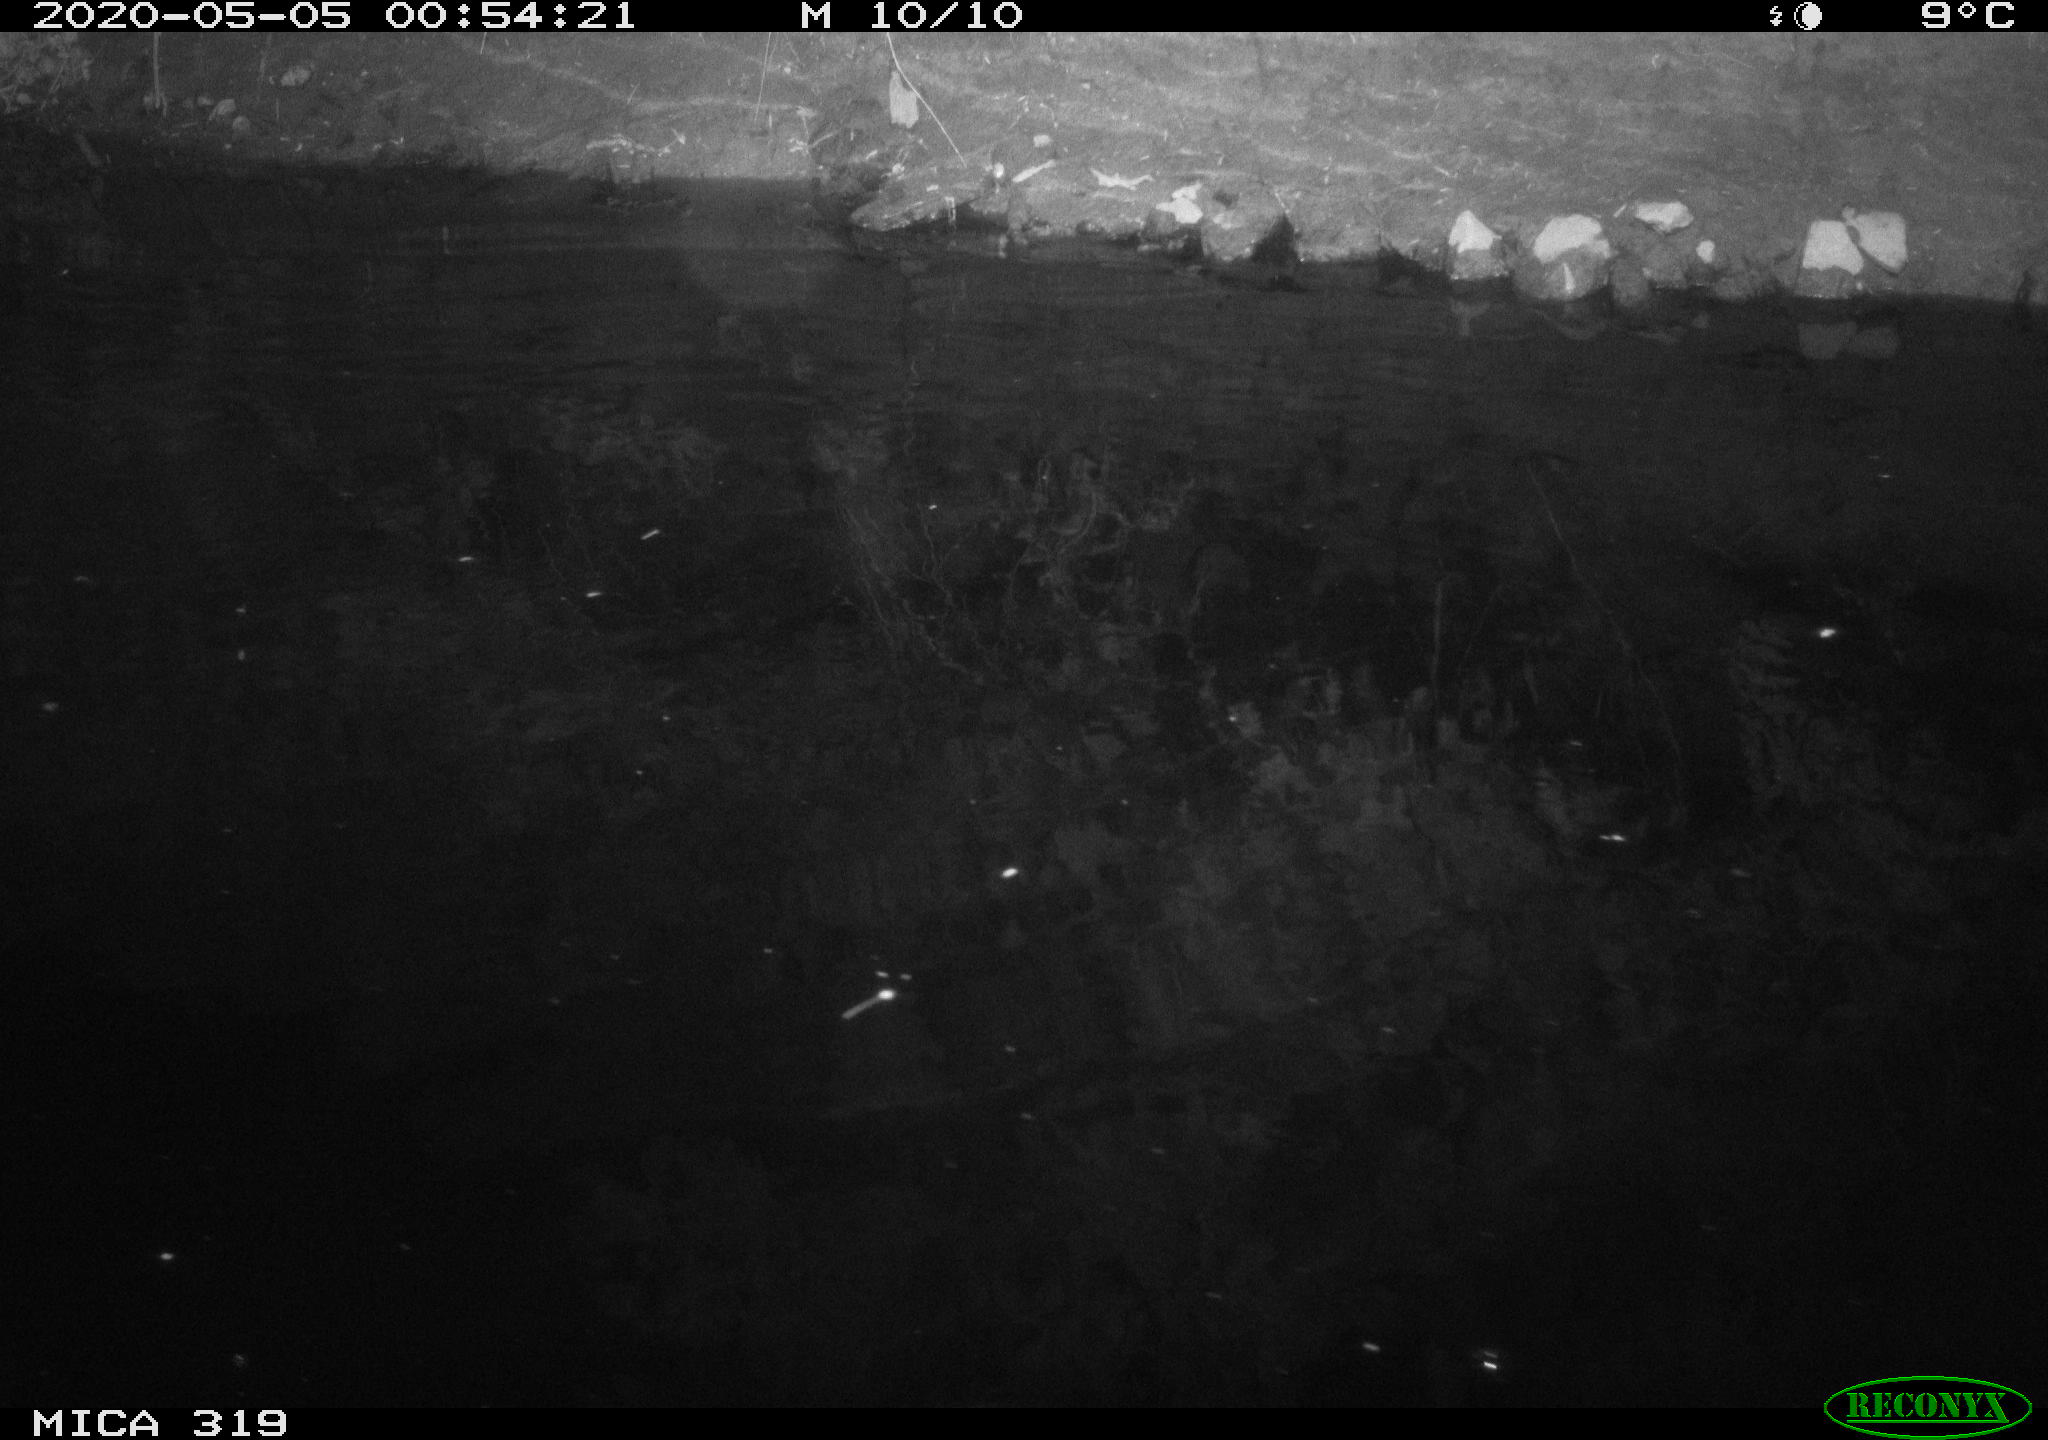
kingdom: Animalia
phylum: Chordata
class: Aves
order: Anseriformes
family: Anatidae
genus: Anas
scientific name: Anas platyrhynchos
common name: Mallard
